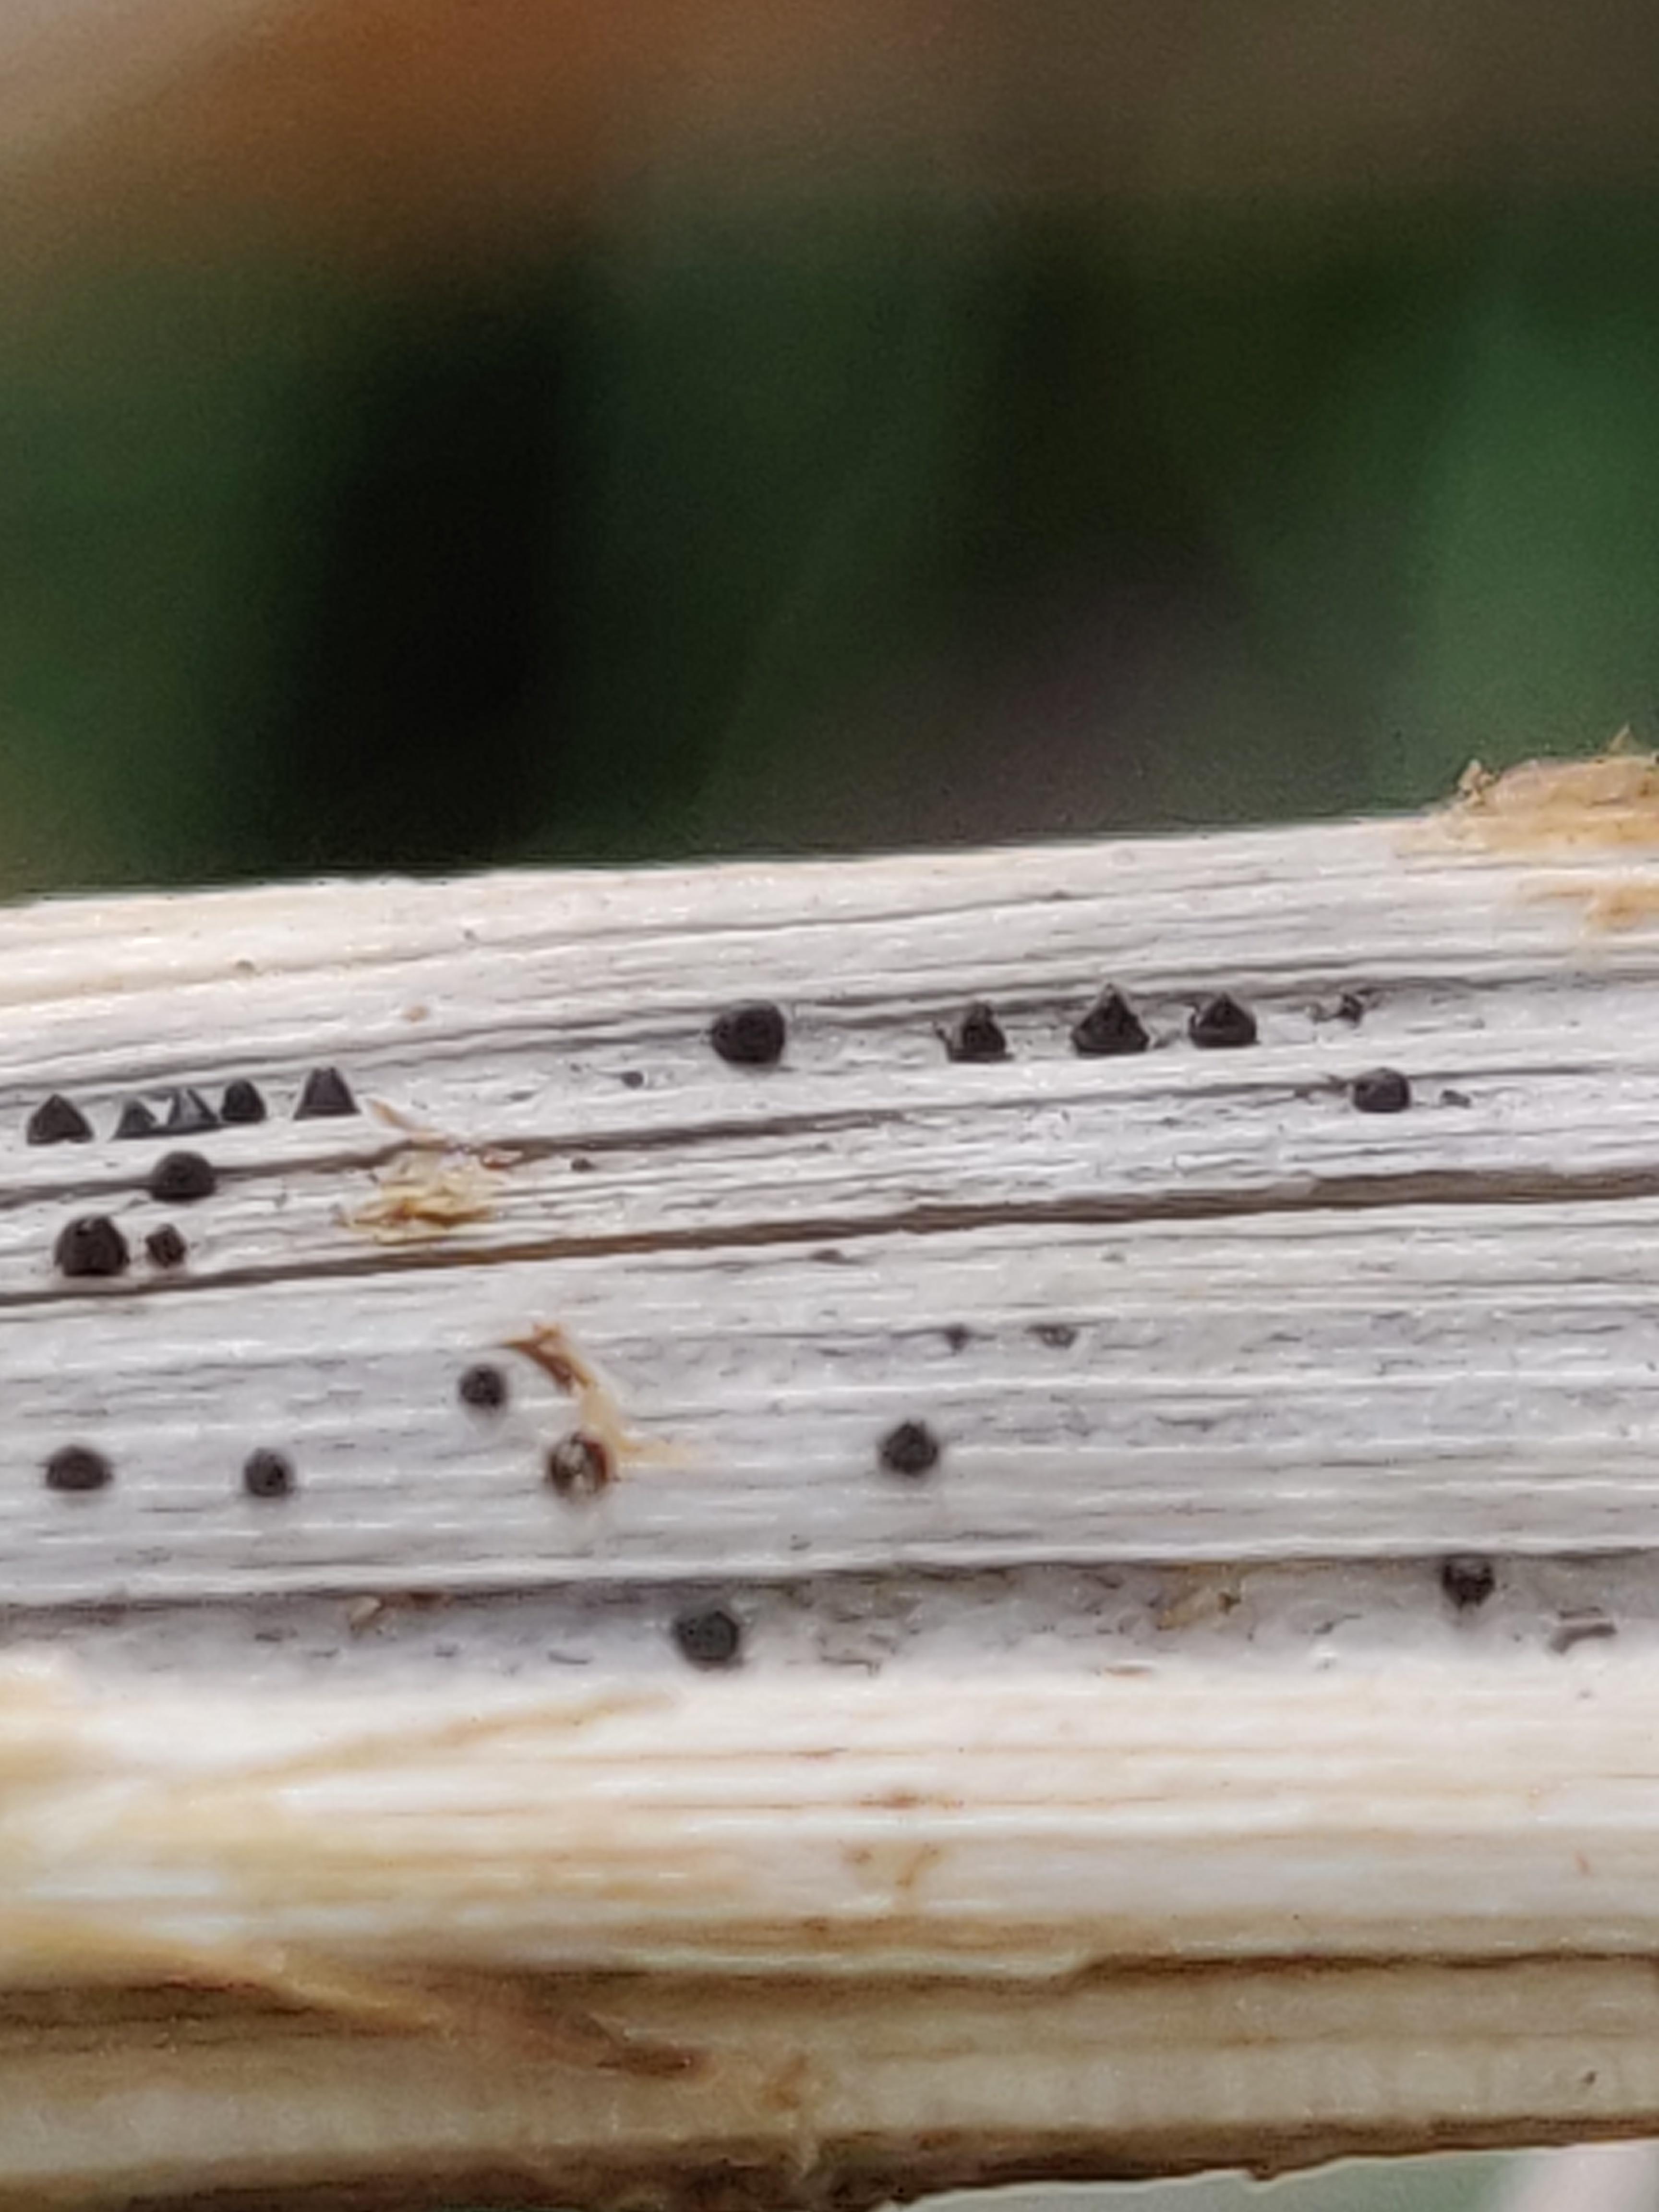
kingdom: Fungi
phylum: Ascomycota
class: Dothideomycetes
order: Pleosporales
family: Leptosphaeriaceae
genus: Leptosphaeria
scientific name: Leptosphaeria
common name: kulkegle
